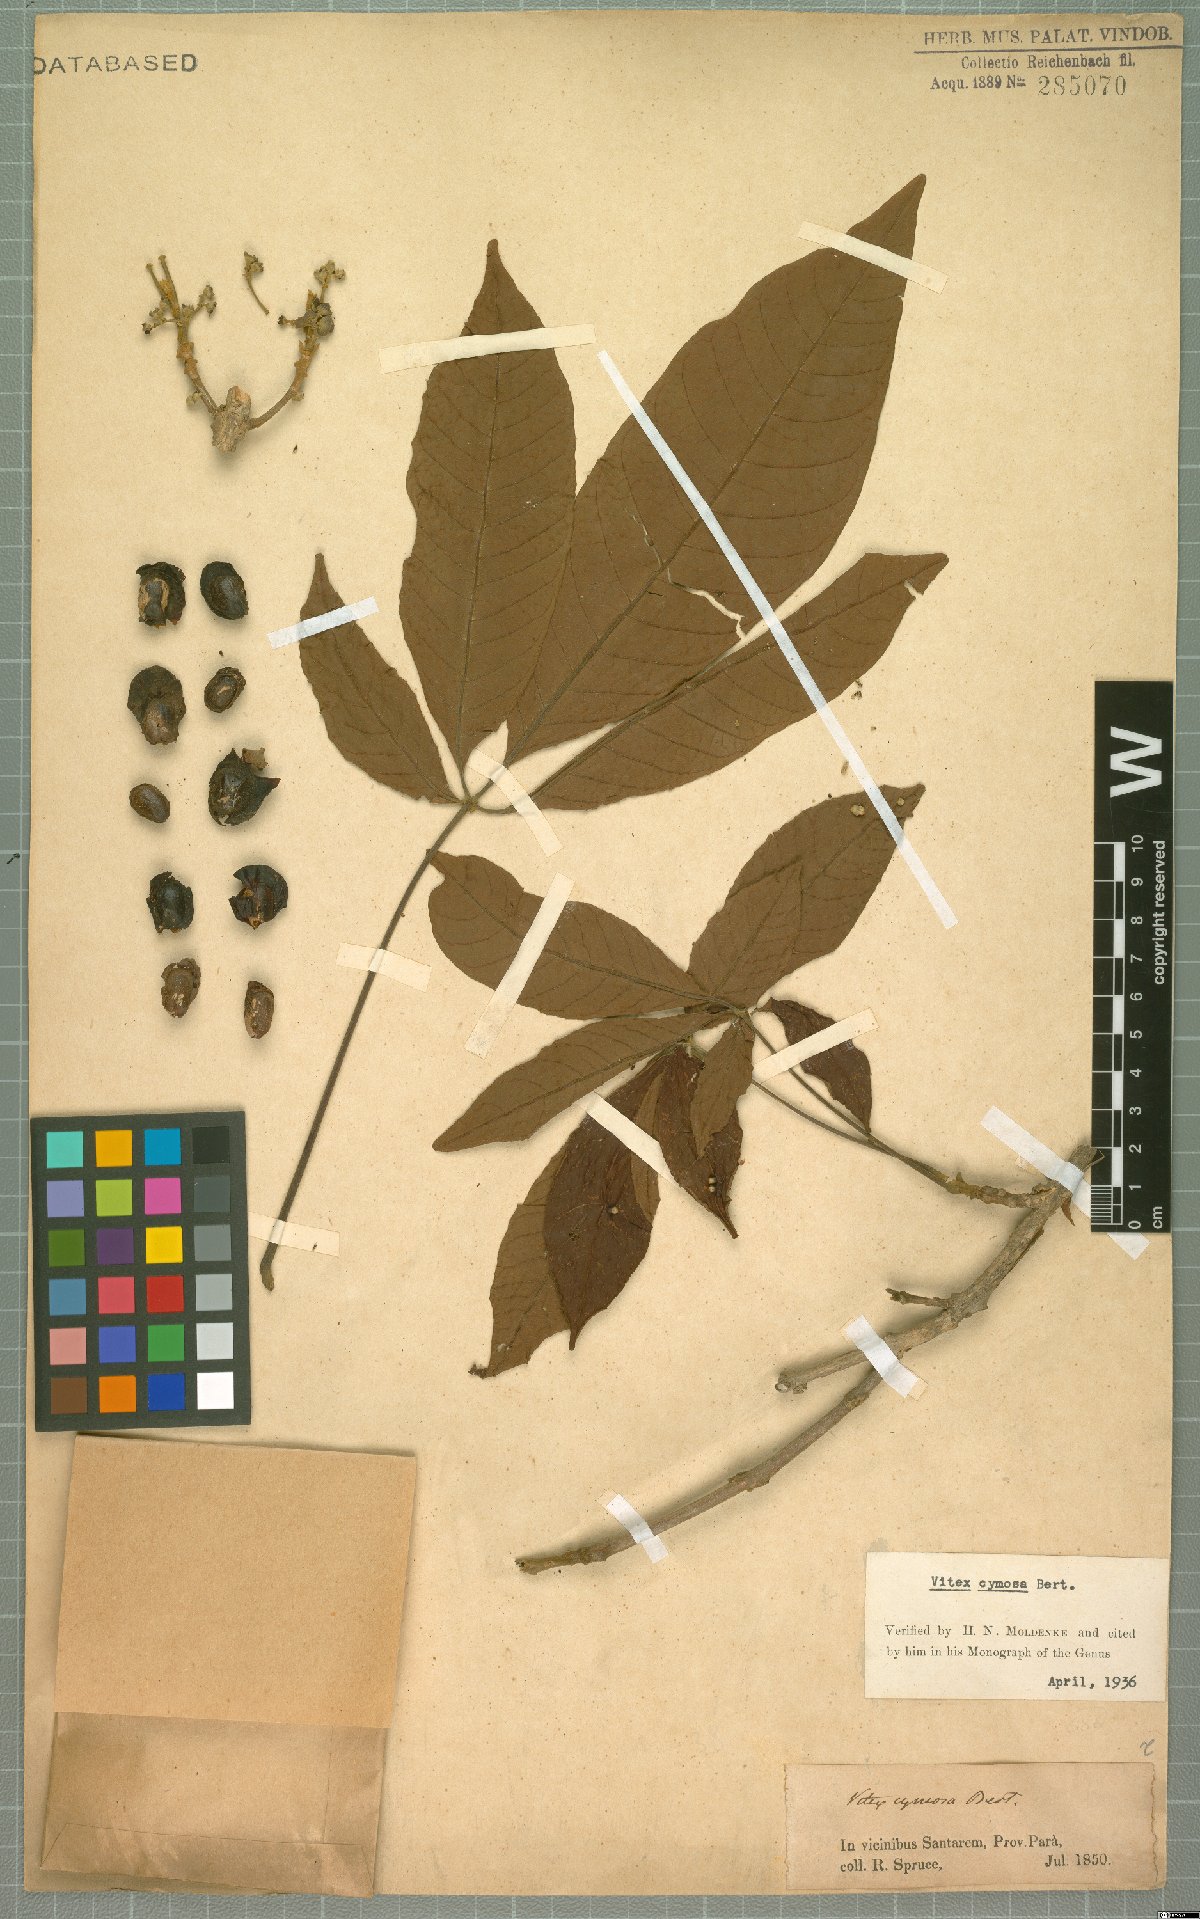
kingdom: Plantae
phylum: Tracheophyta
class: Magnoliopsida
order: Lamiales
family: Lamiaceae
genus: Vitex
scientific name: Vitex cymosa
